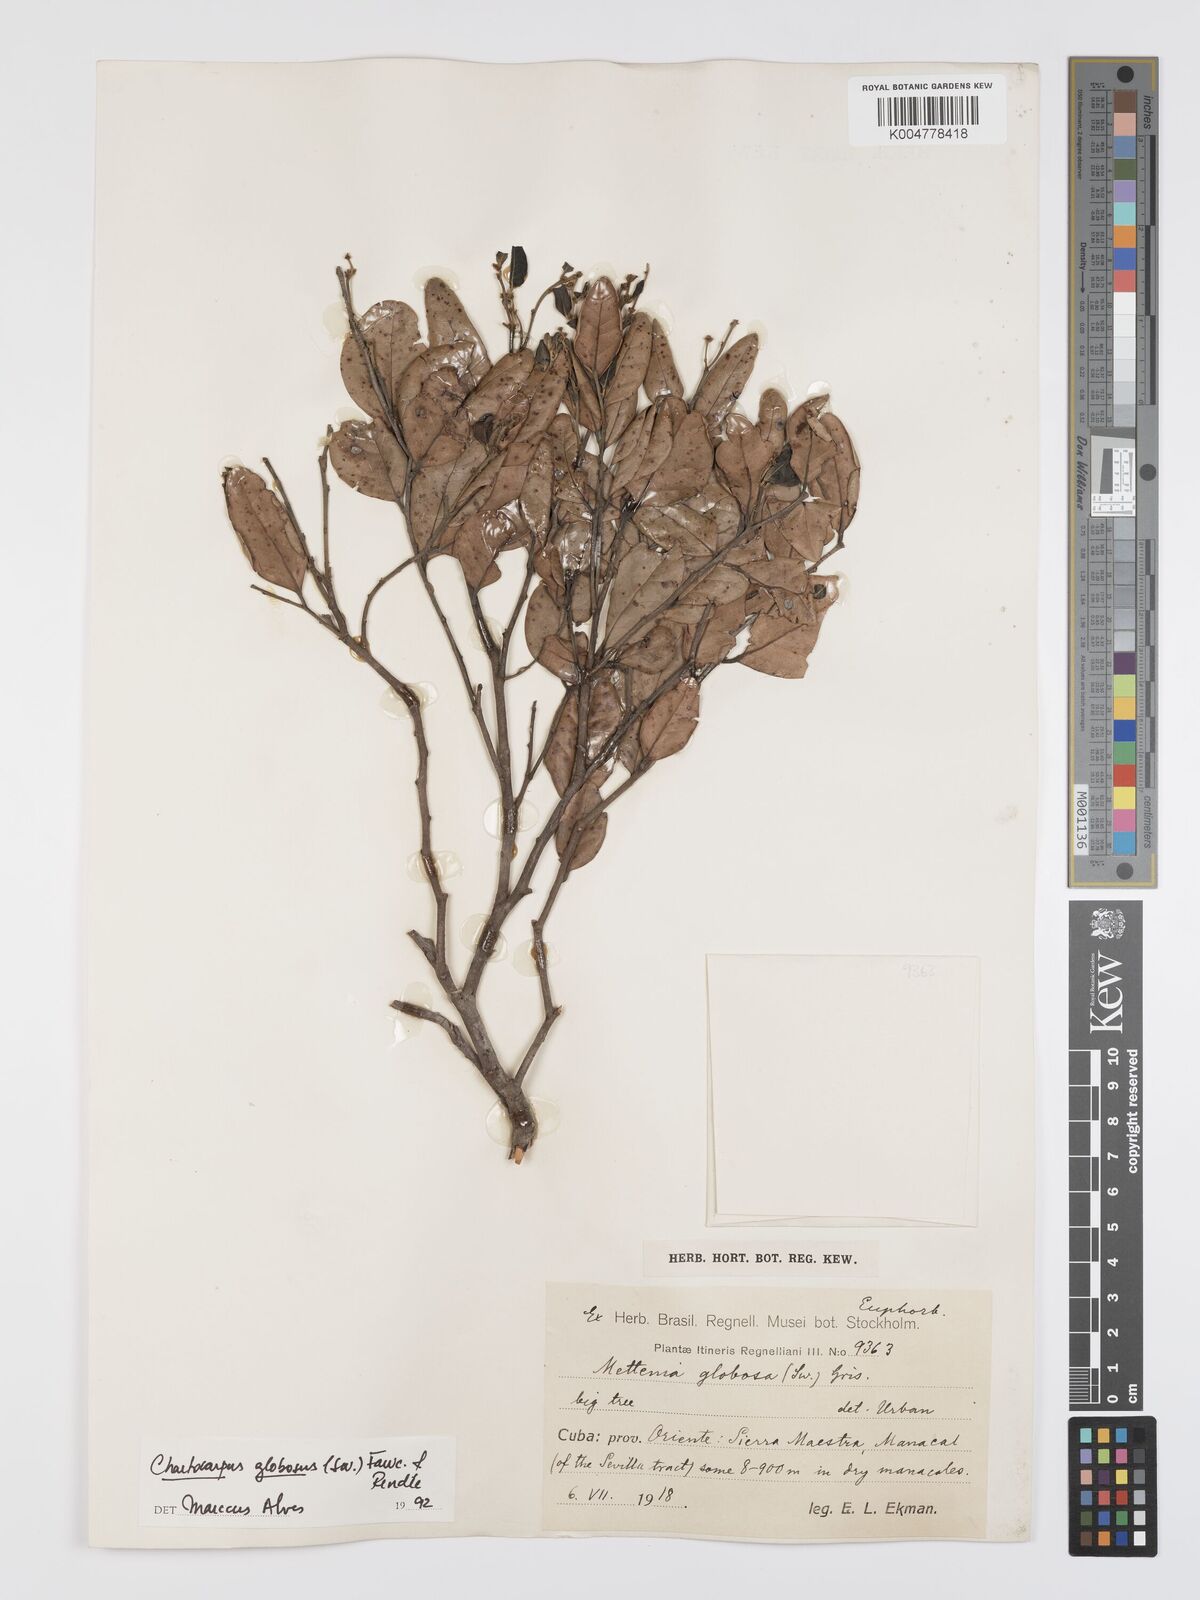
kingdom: Plantae
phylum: Tracheophyta
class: Magnoliopsida
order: Malpighiales
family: Peraceae
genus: Chaetocarpus
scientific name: Chaetocarpus globosus
